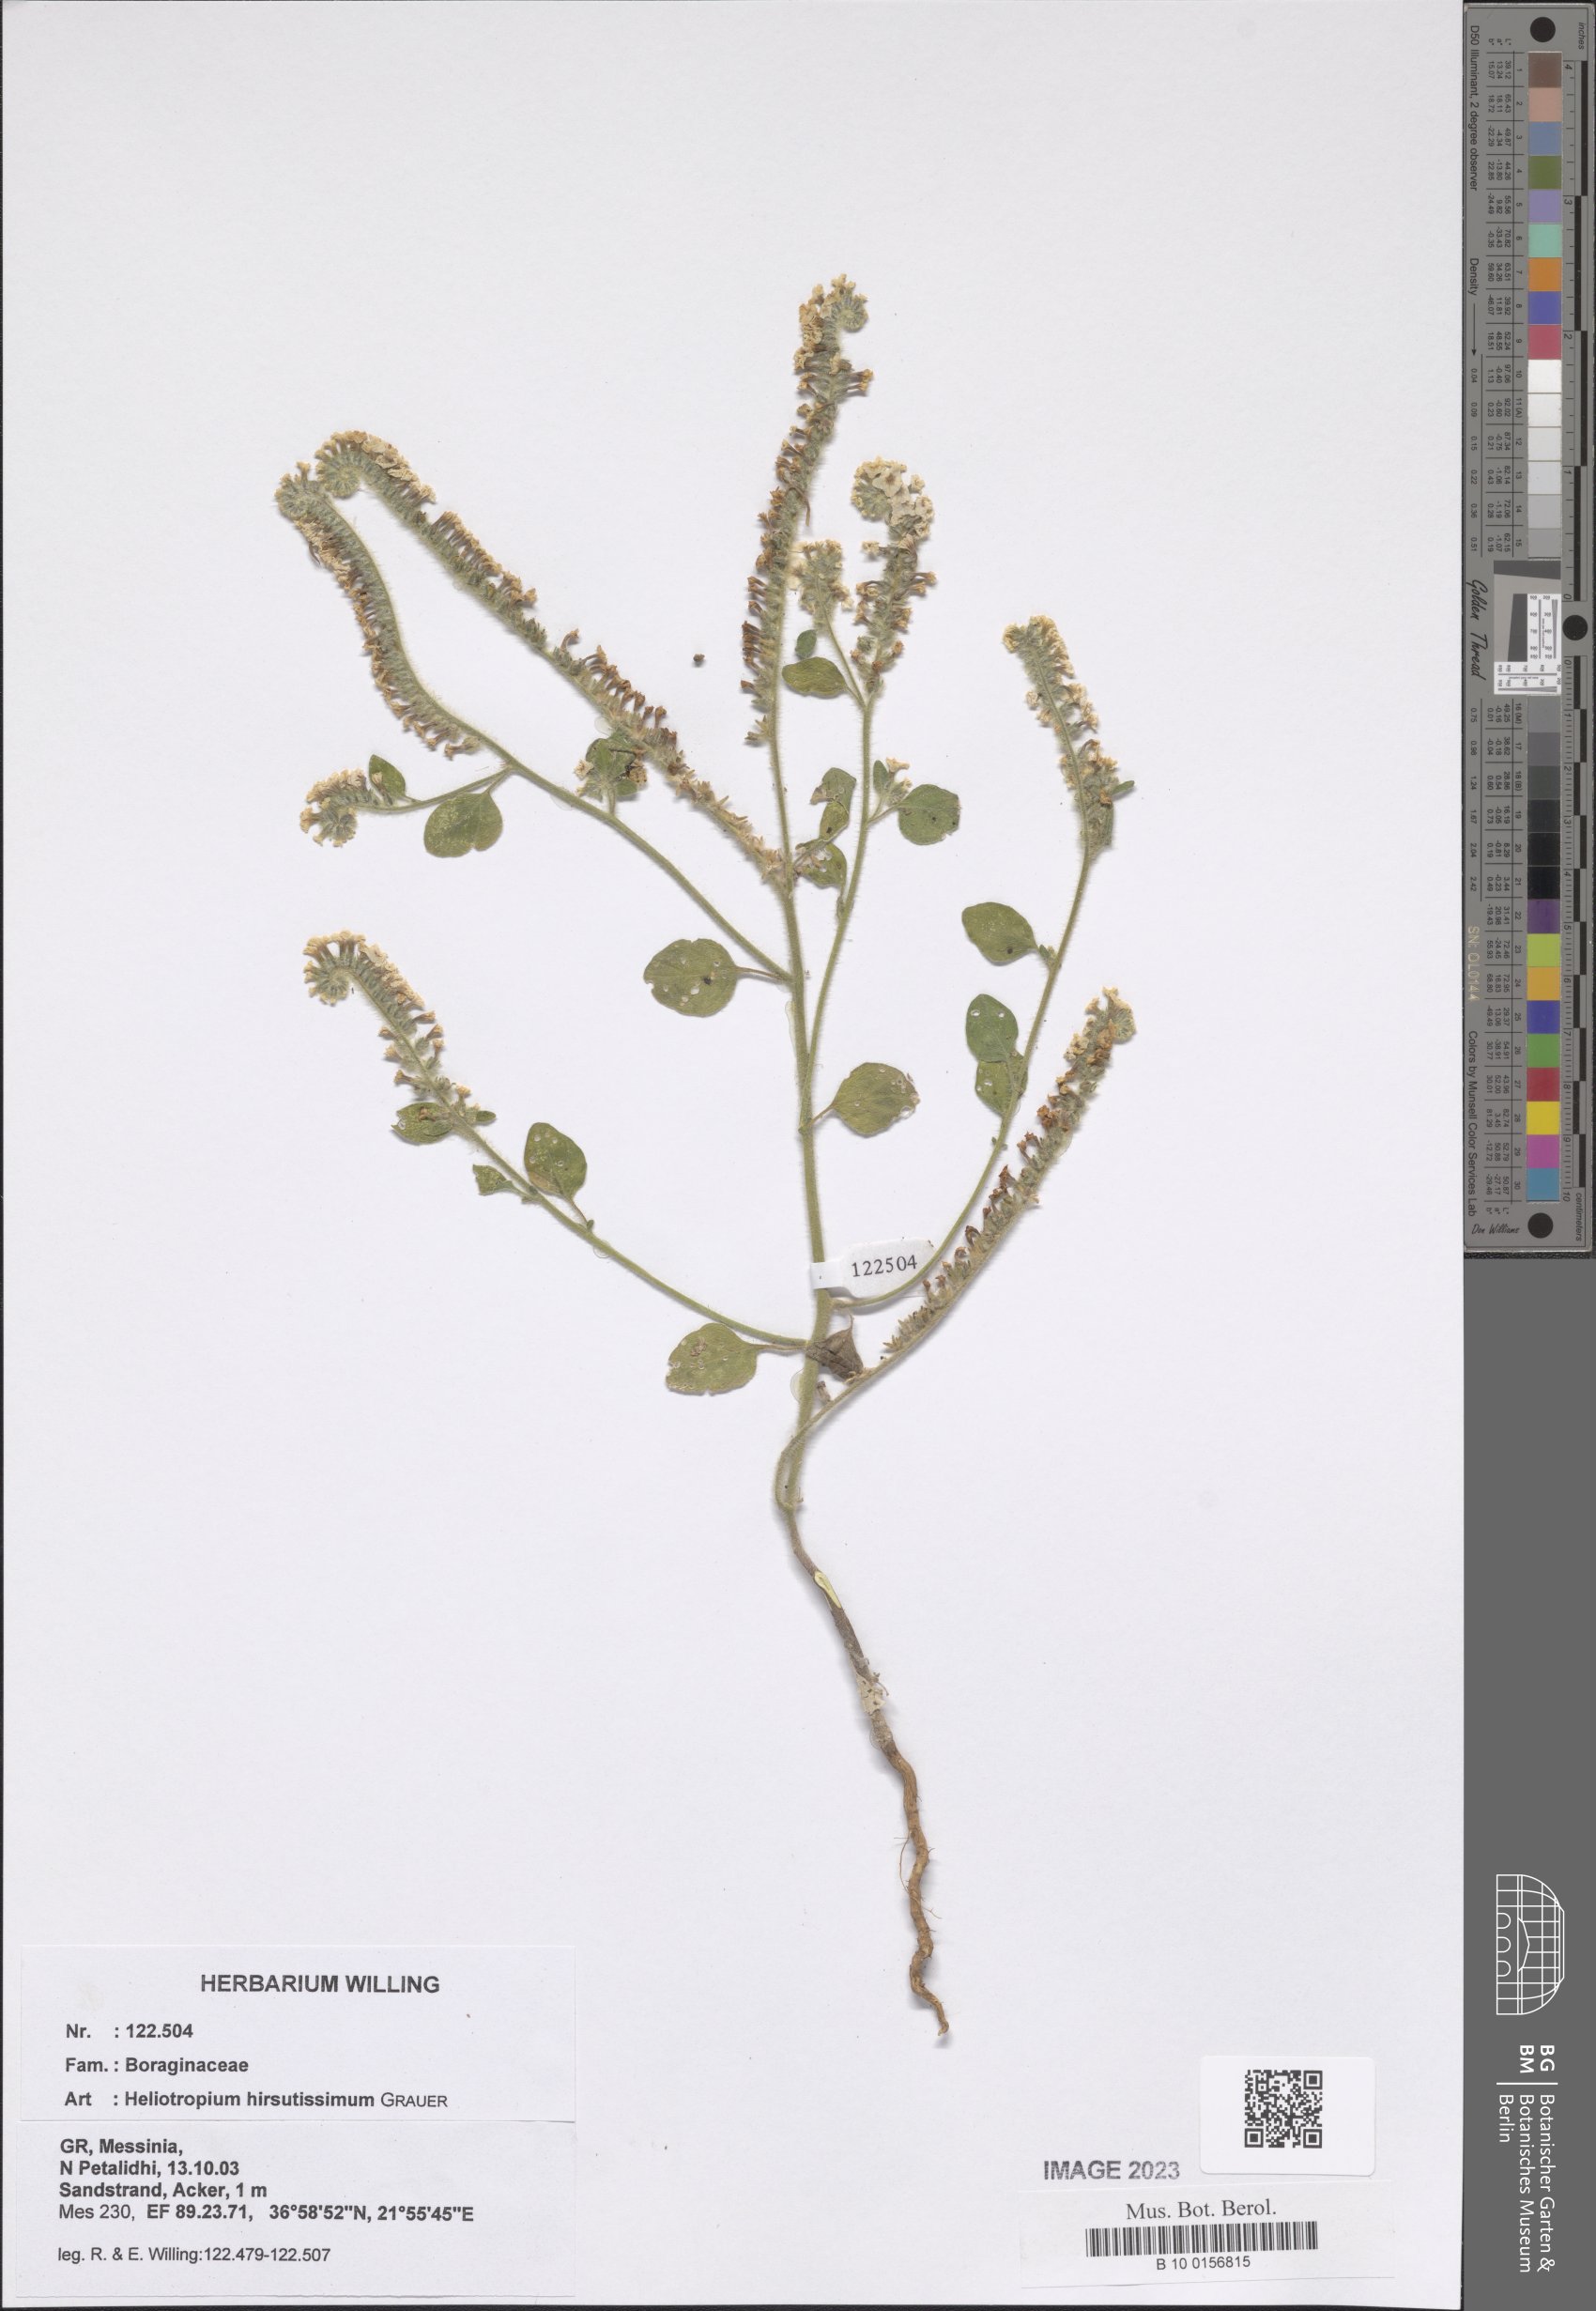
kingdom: Plantae
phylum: Tracheophyta
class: Magnoliopsida
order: Boraginales
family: Heliotropiaceae
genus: Heliotropium
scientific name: Heliotropium hirsutissimum
